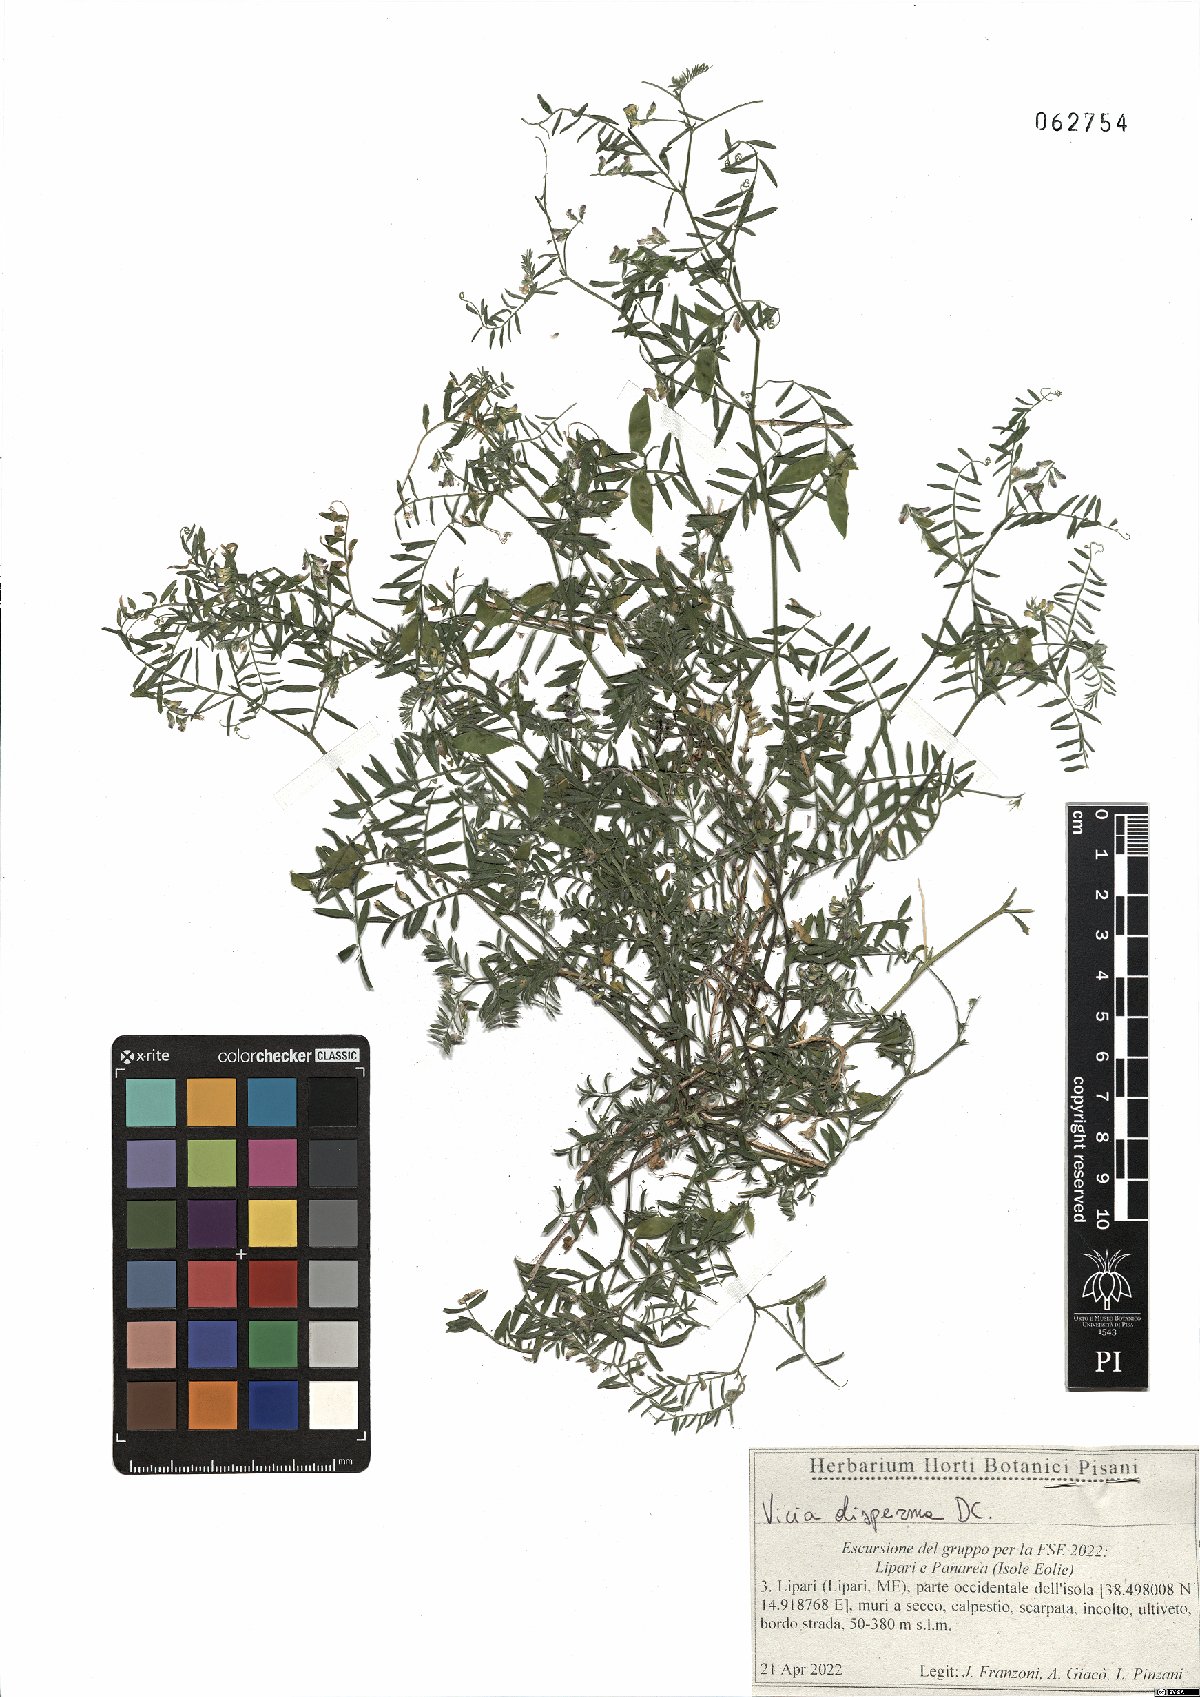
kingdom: Plantae
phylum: Tracheophyta
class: Magnoliopsida
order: Fabales
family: Fabaceae
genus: Vicia
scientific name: Vicia disperma
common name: European vetch
